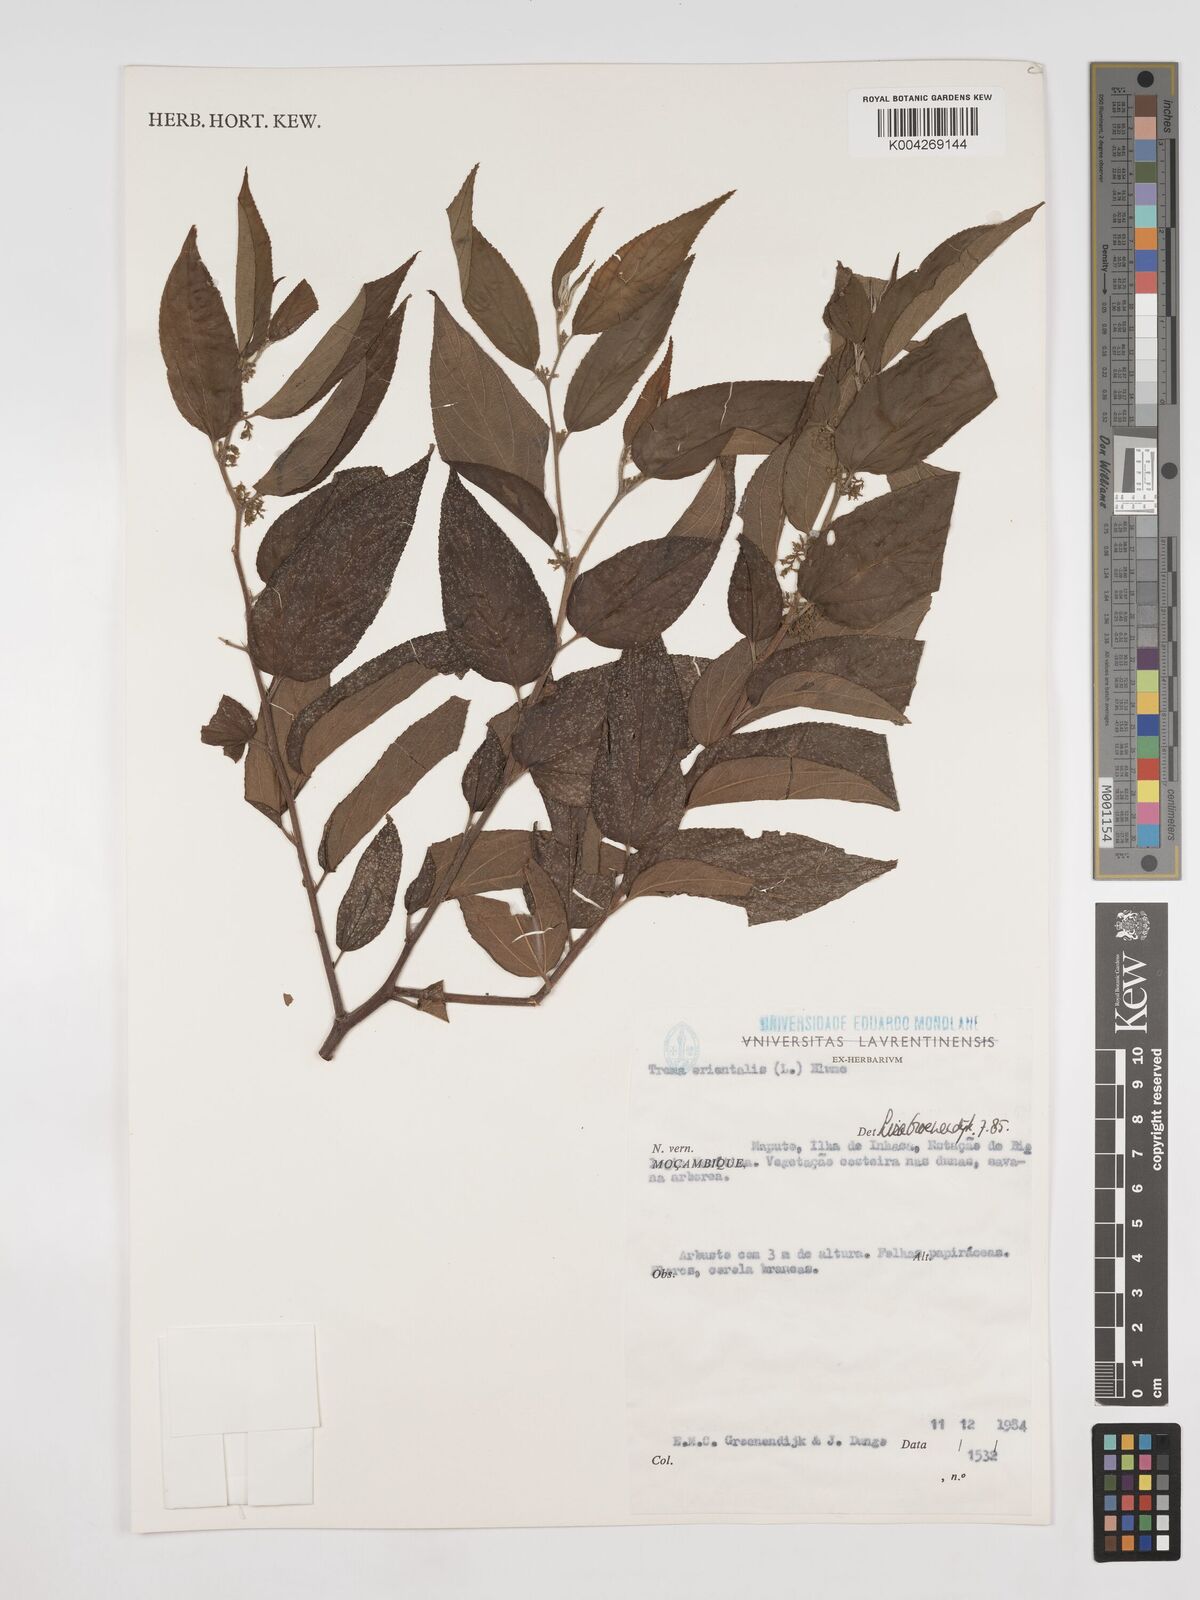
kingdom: Plantae
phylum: Tracheophyta
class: Magnoliopsida
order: Rosales
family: Cannabaceae
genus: Trema
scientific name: Trema orientale
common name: Indian charcoal tree
